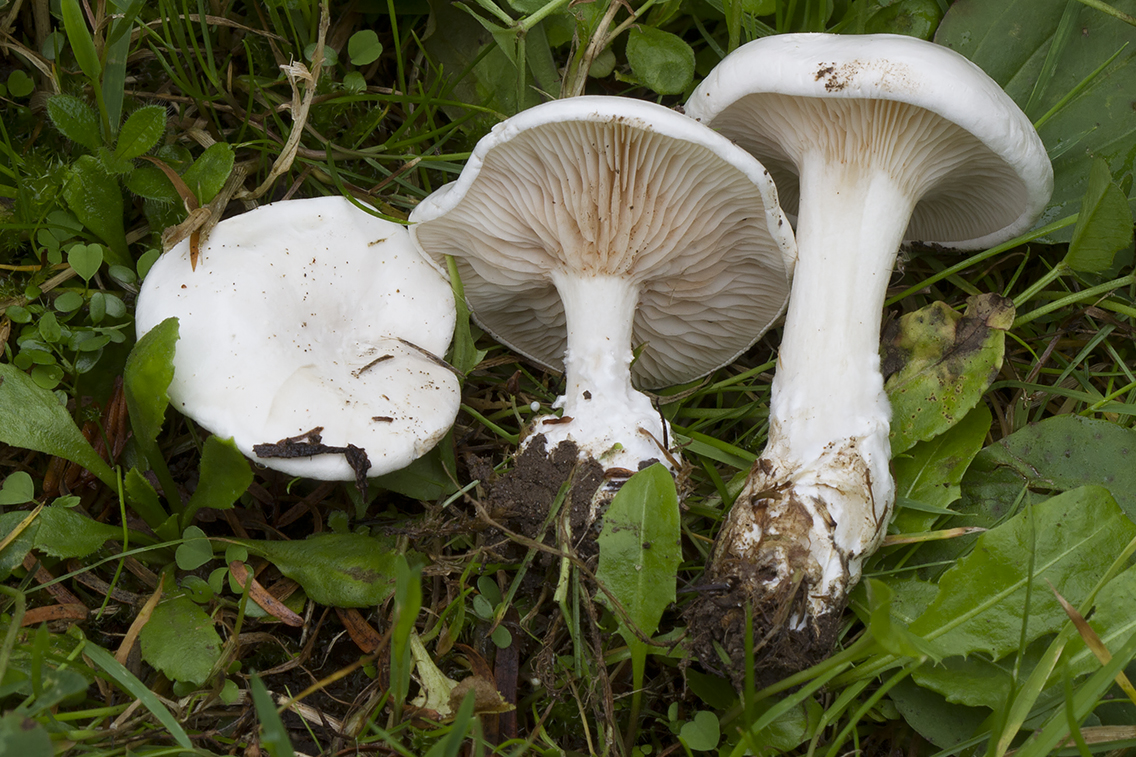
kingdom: Fungi
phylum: Basidiomycota
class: Agaricomycetes
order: Agaricales
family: Entolomataceae
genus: Clitopilus
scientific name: Clitopilus prunulus
